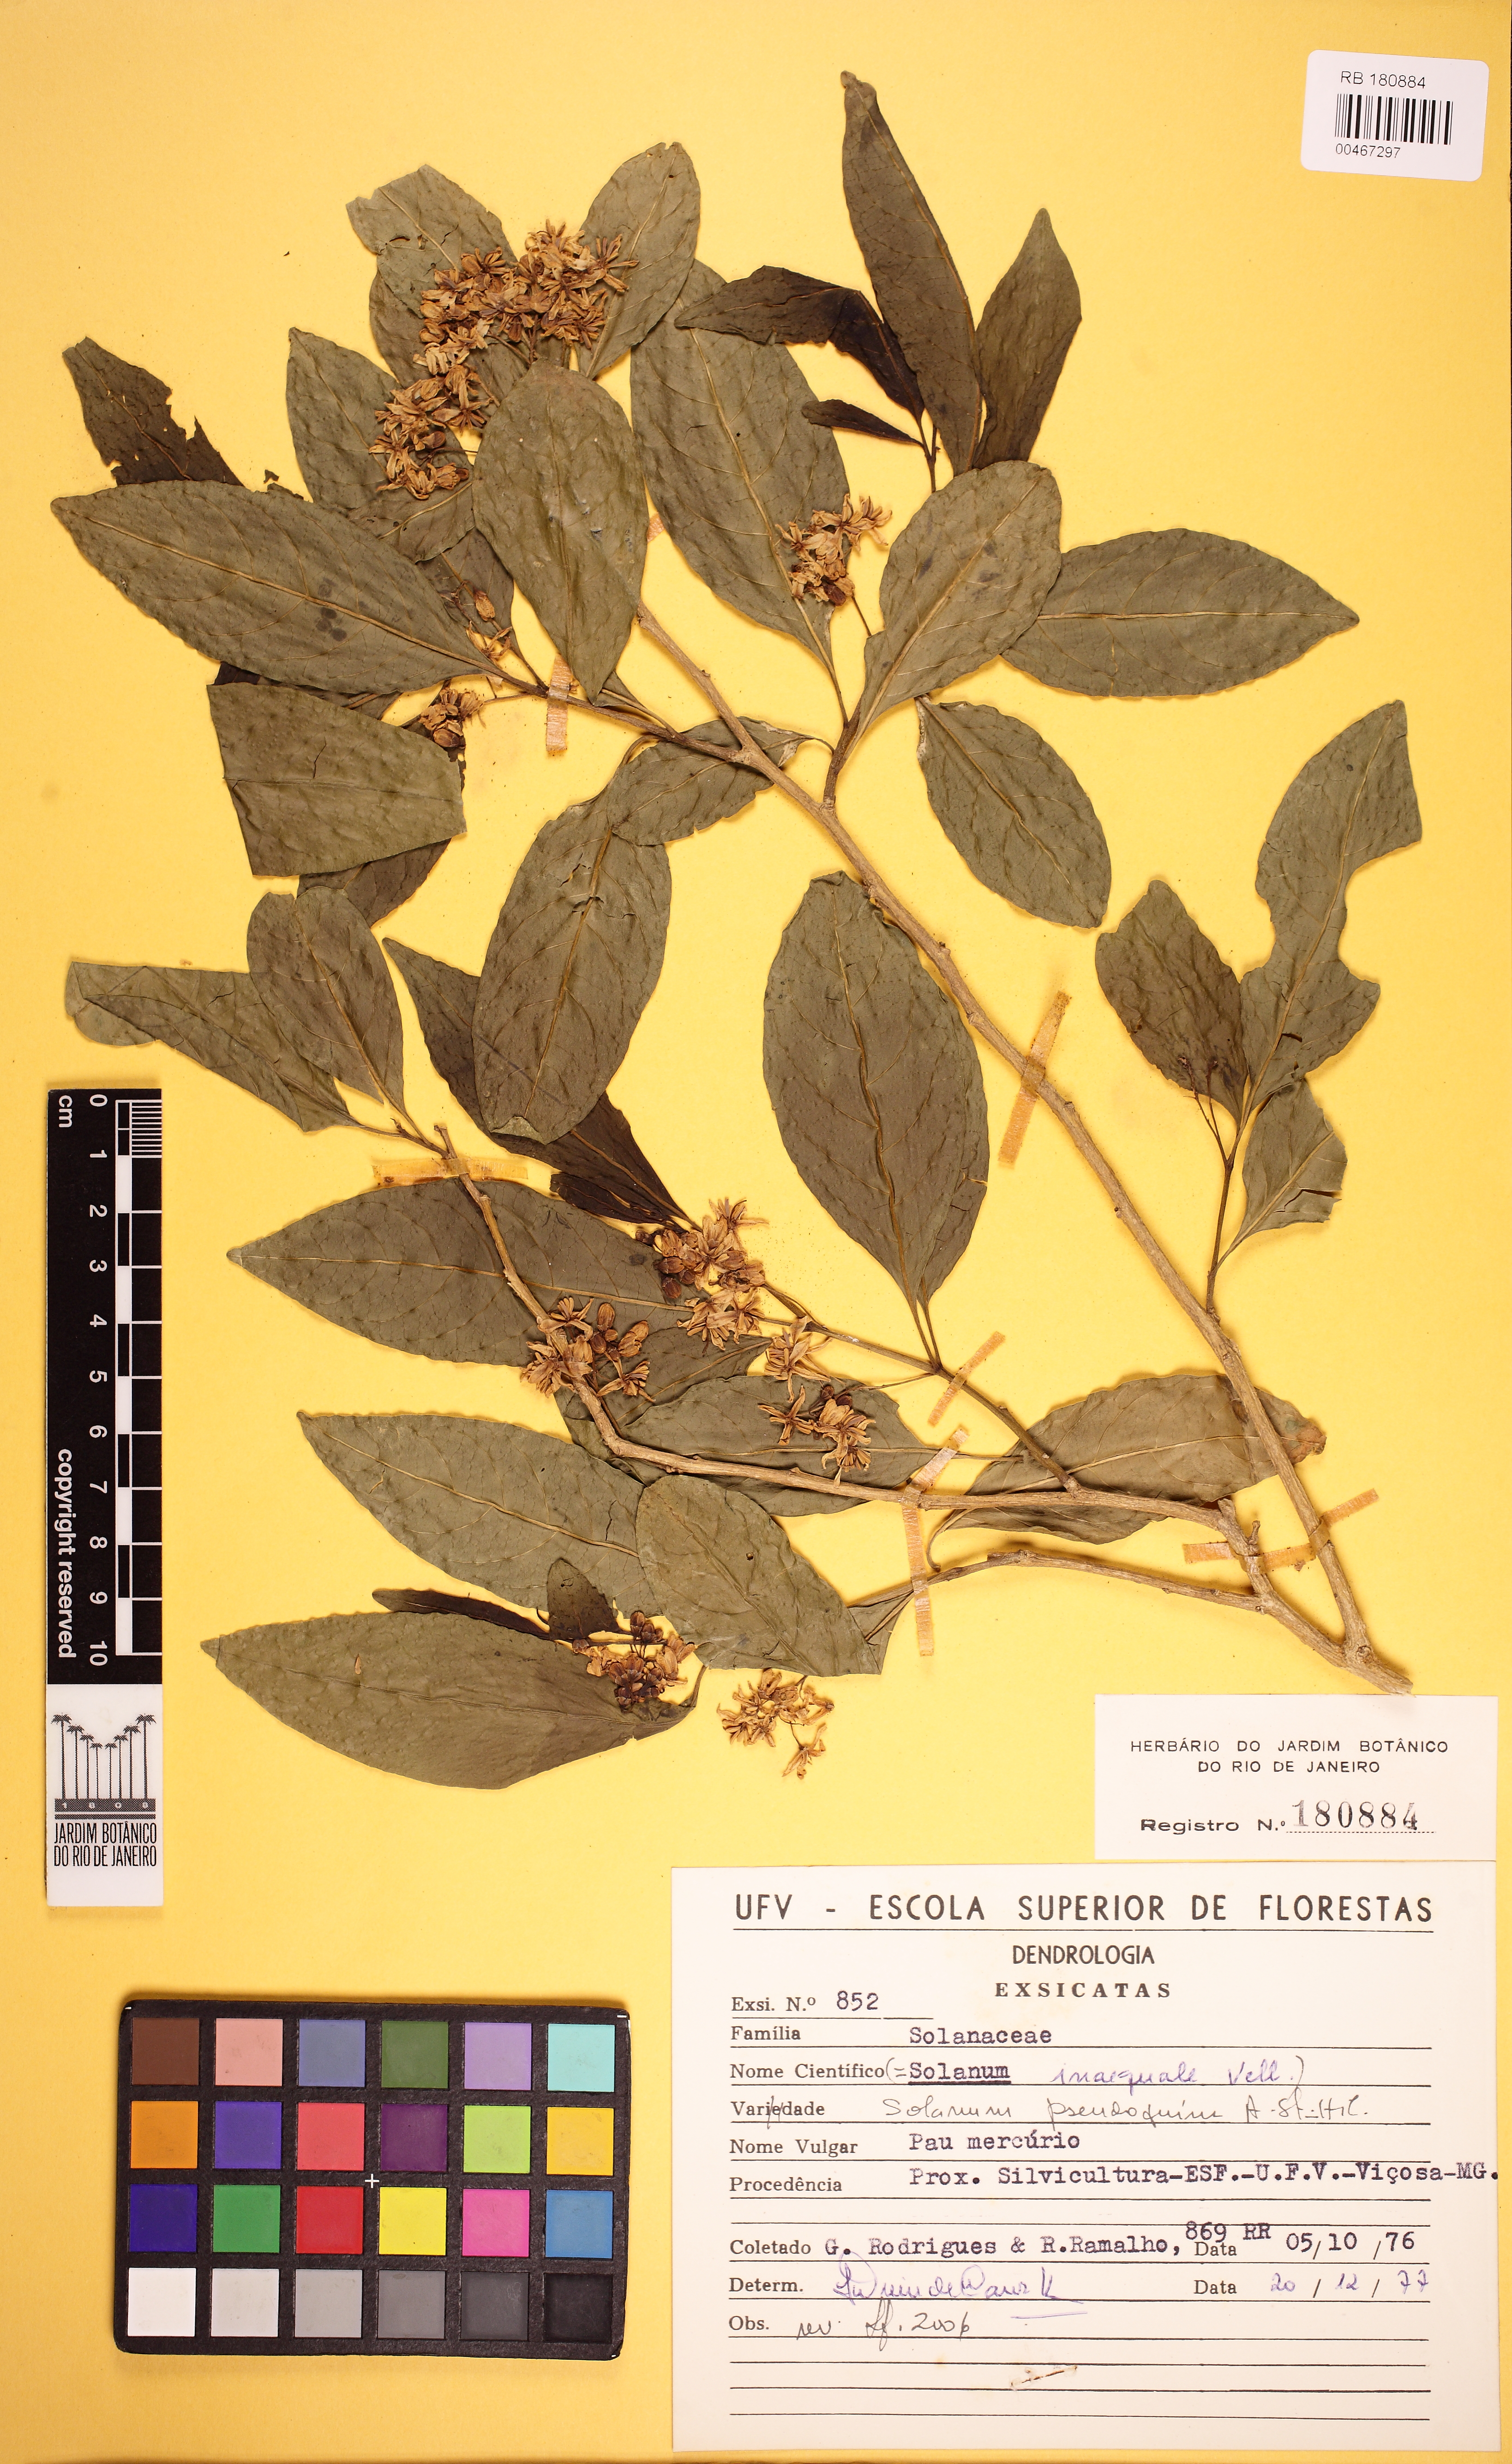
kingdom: Plantae
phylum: Tracheophyta
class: Magnoliopsida
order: Solanales
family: Solanaceae
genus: Solanum
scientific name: Solanum pseudoquina
